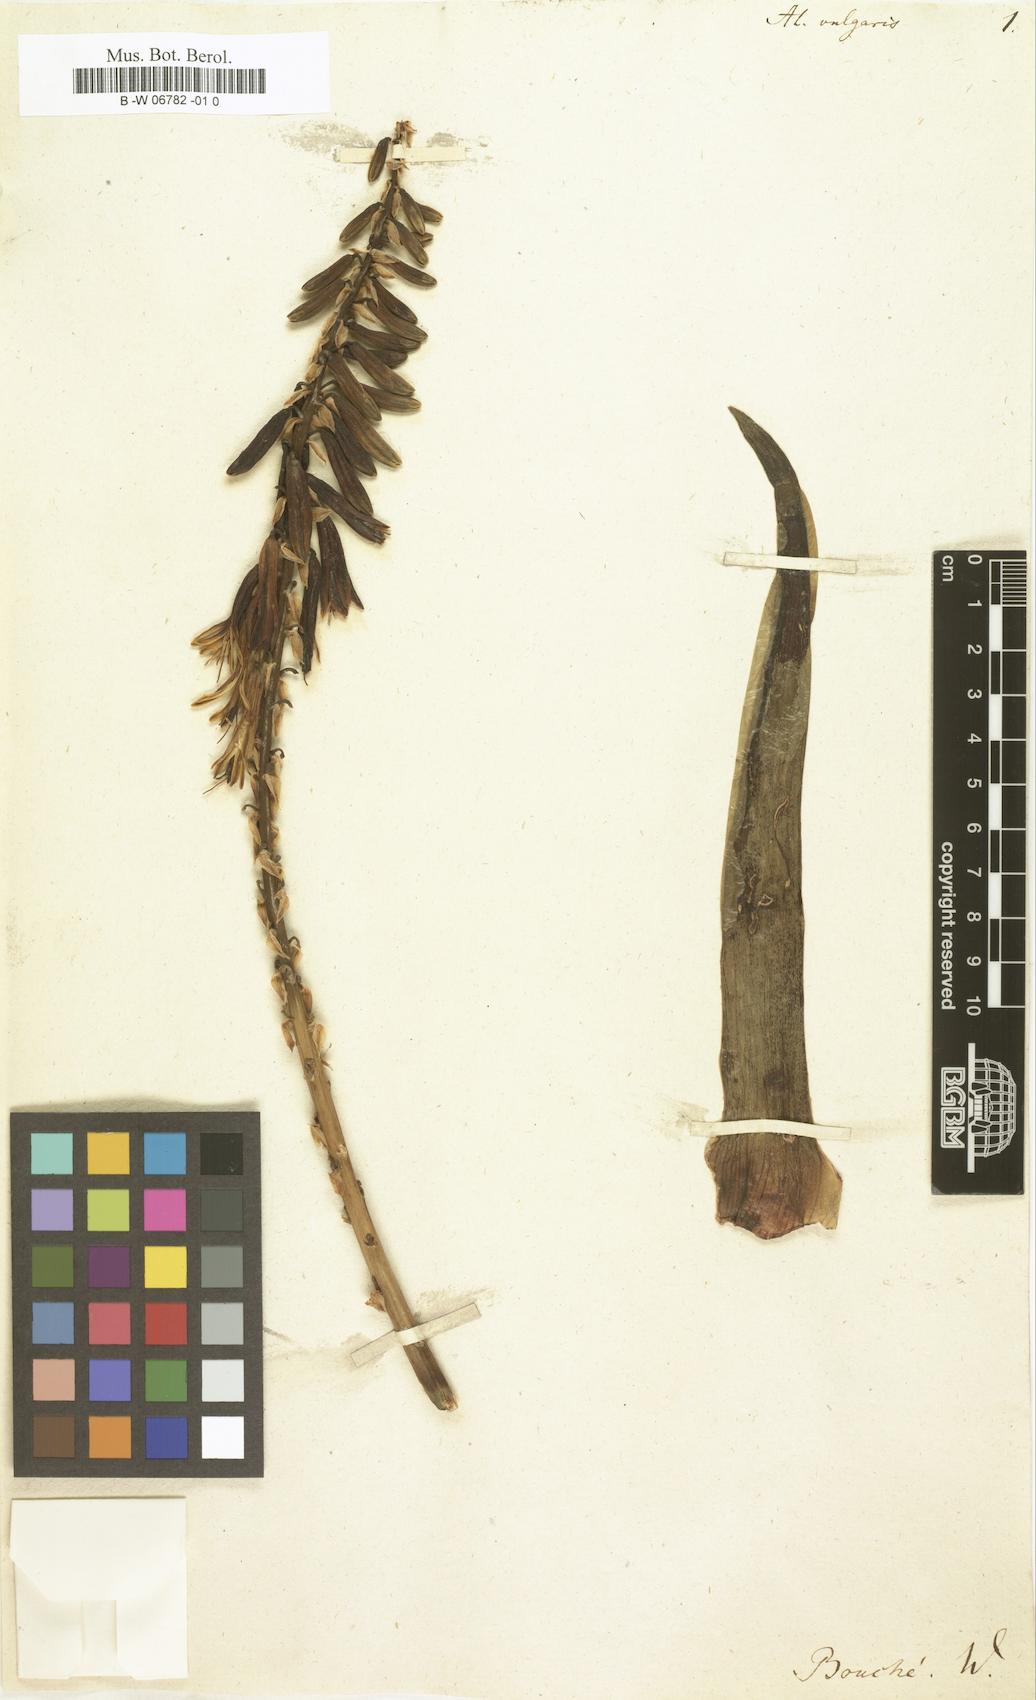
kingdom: Plantae
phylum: Tracheophyta
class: Liliopsida
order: Asparagales
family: Asphodelaceae
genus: Aloe
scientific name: Aloe vera
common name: Barbados aloe
